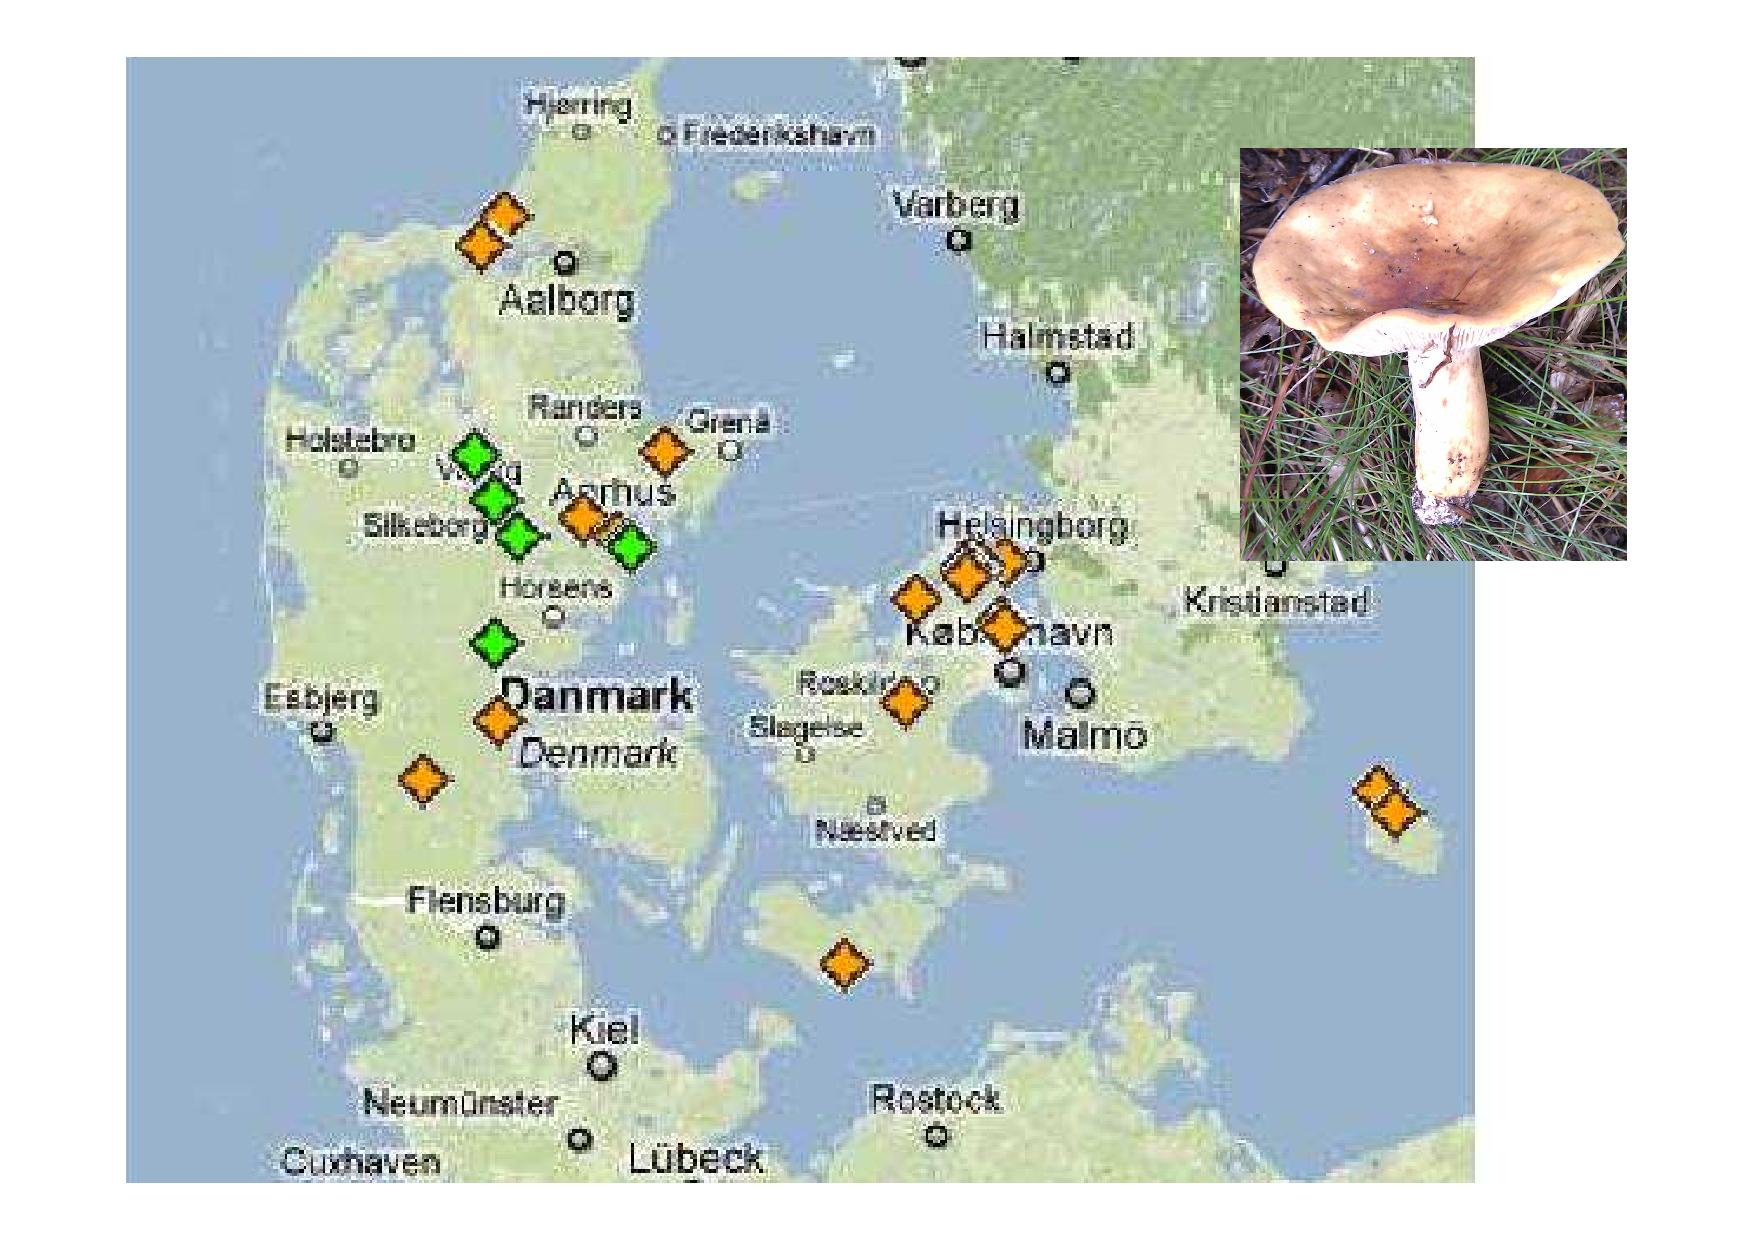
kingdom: Fungi
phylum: Basidiomycota
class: Agaricomycetes
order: Russulales
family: Russulaceae
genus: Lactifluus
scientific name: Lactifluus volemus
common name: spiselig mælkehat
